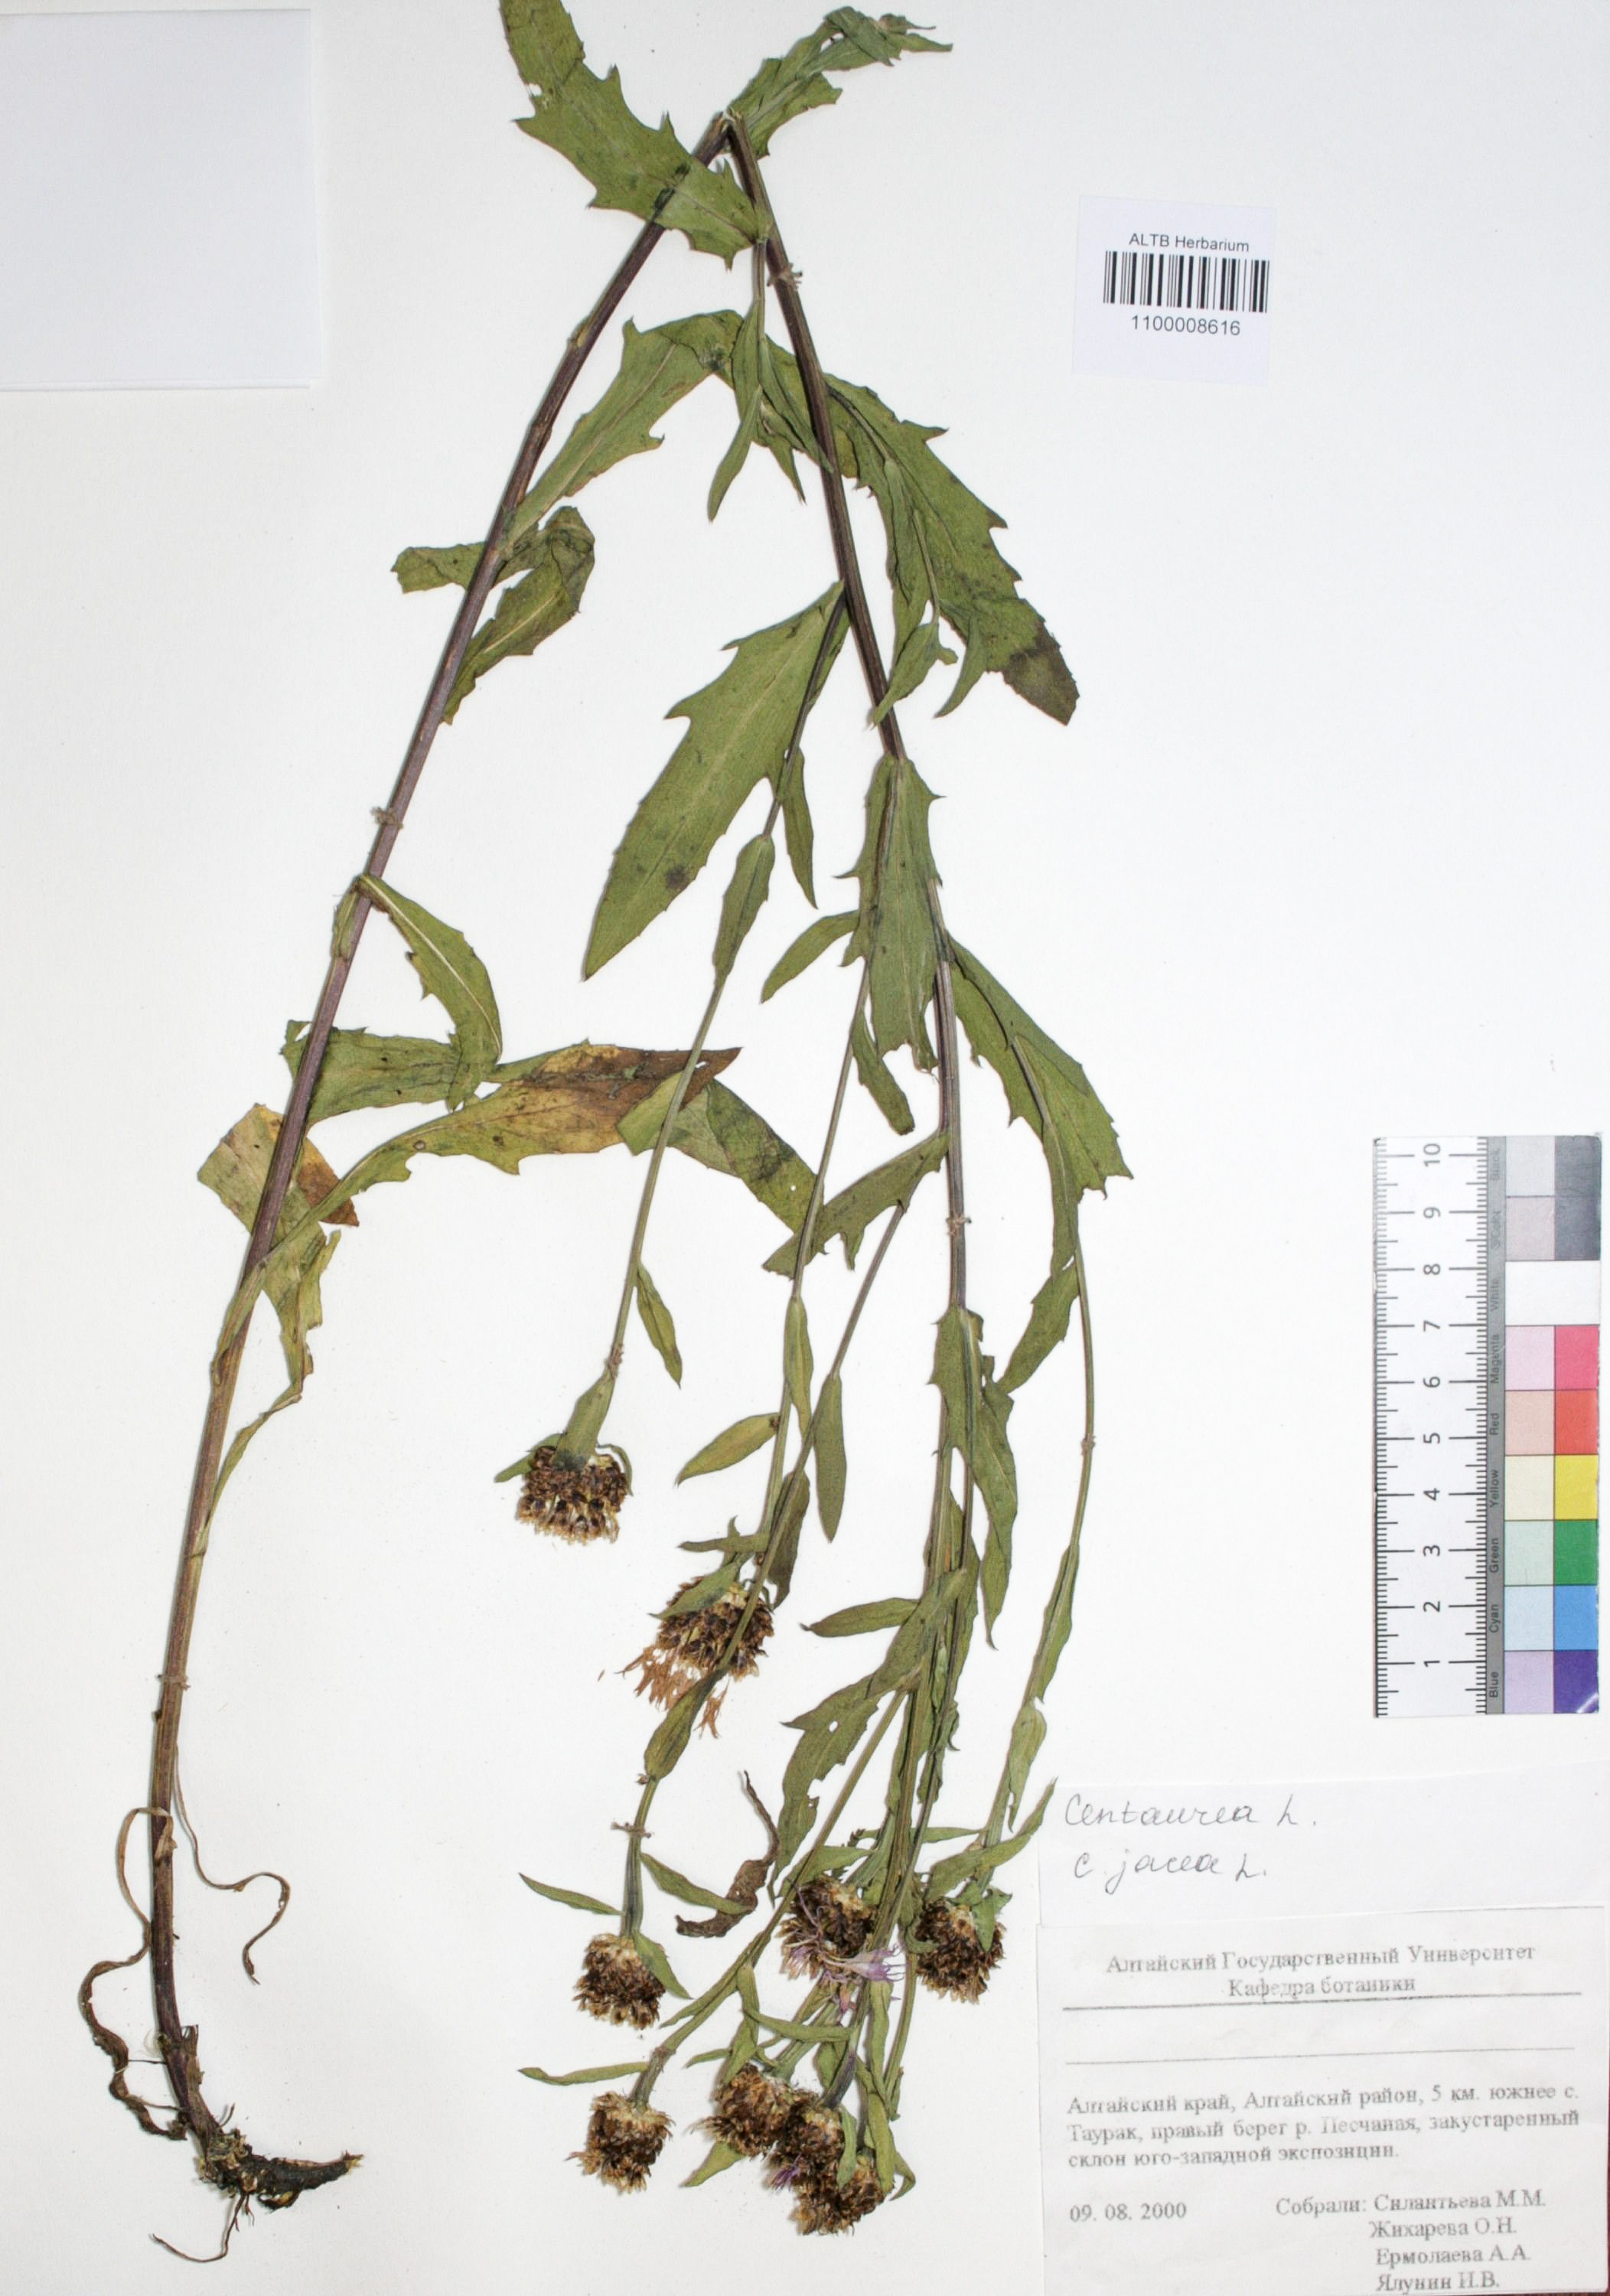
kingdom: Plantae
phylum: Tracheophyta
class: Magnoliopsida
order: Asterales
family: Asteraceae
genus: Centaurea
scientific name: Centaurea jacea
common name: Brown knapweed
